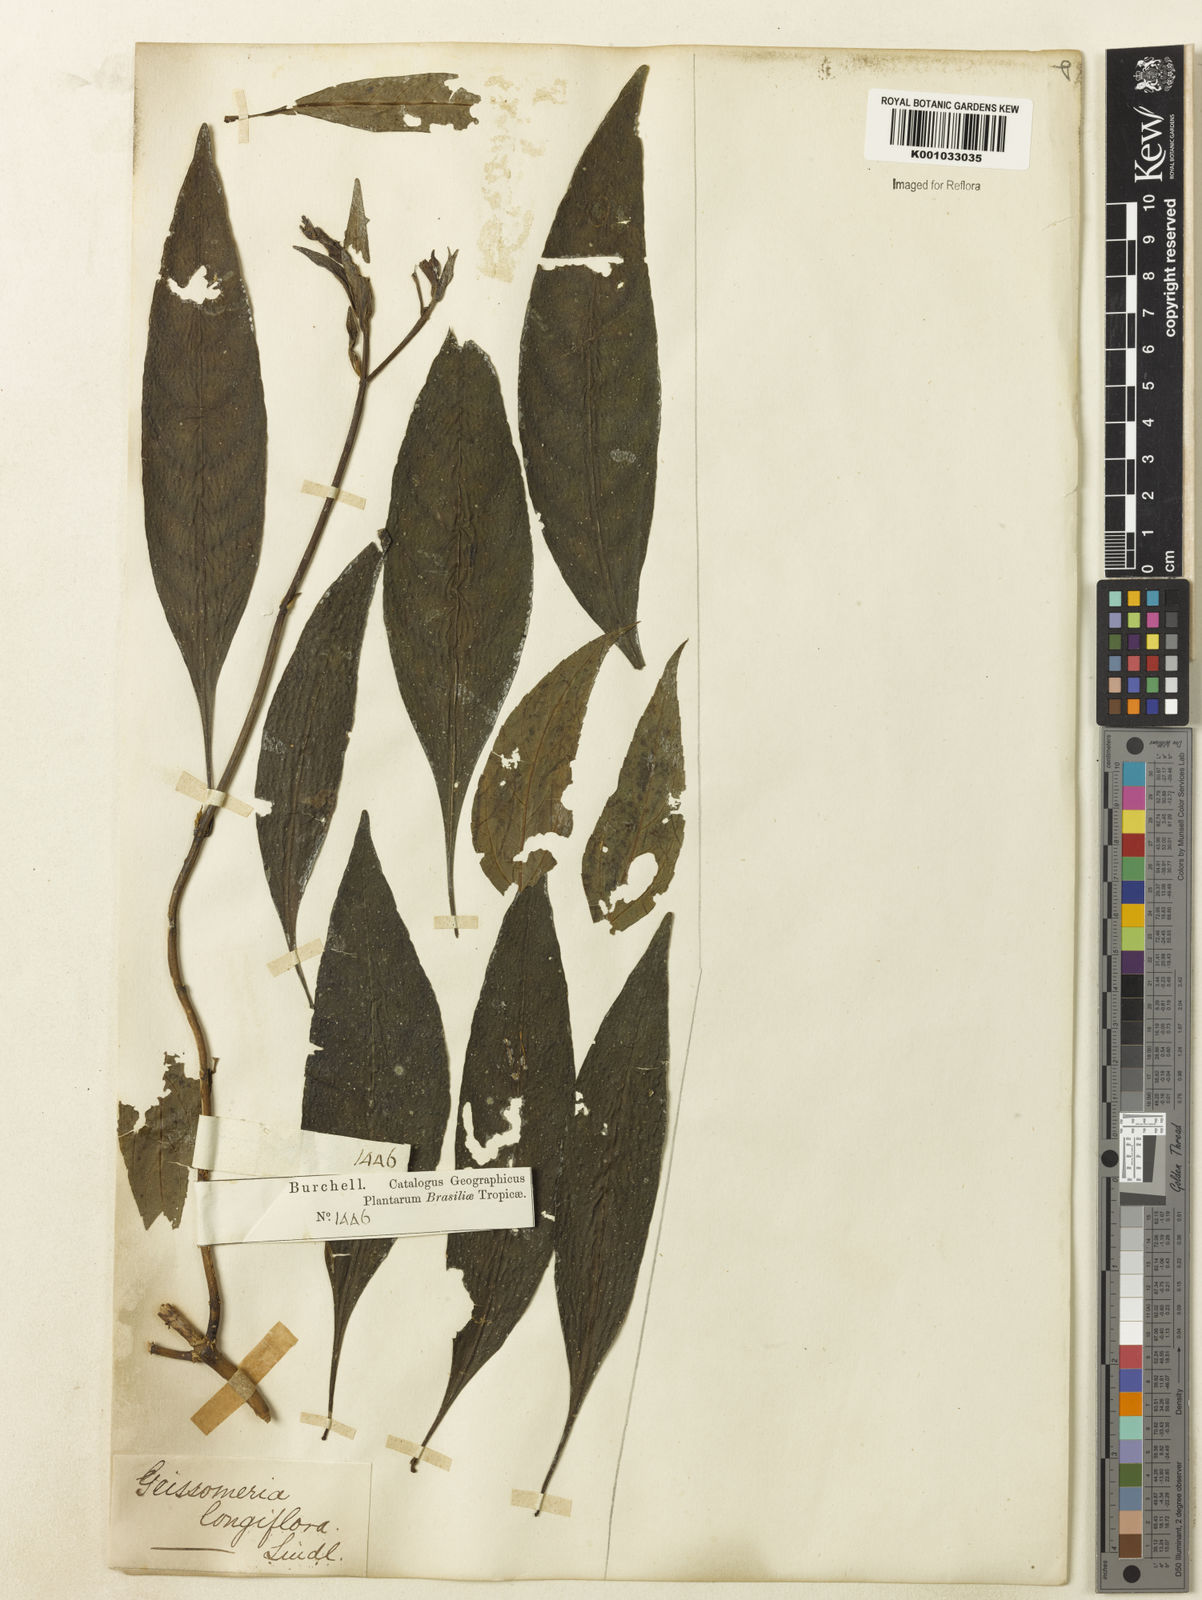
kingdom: Plantae
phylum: Tracheophyta
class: Magnoliopsida
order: Lamiales
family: Acanthaceae
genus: Aphelandra
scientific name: Aphelandra longiflora
